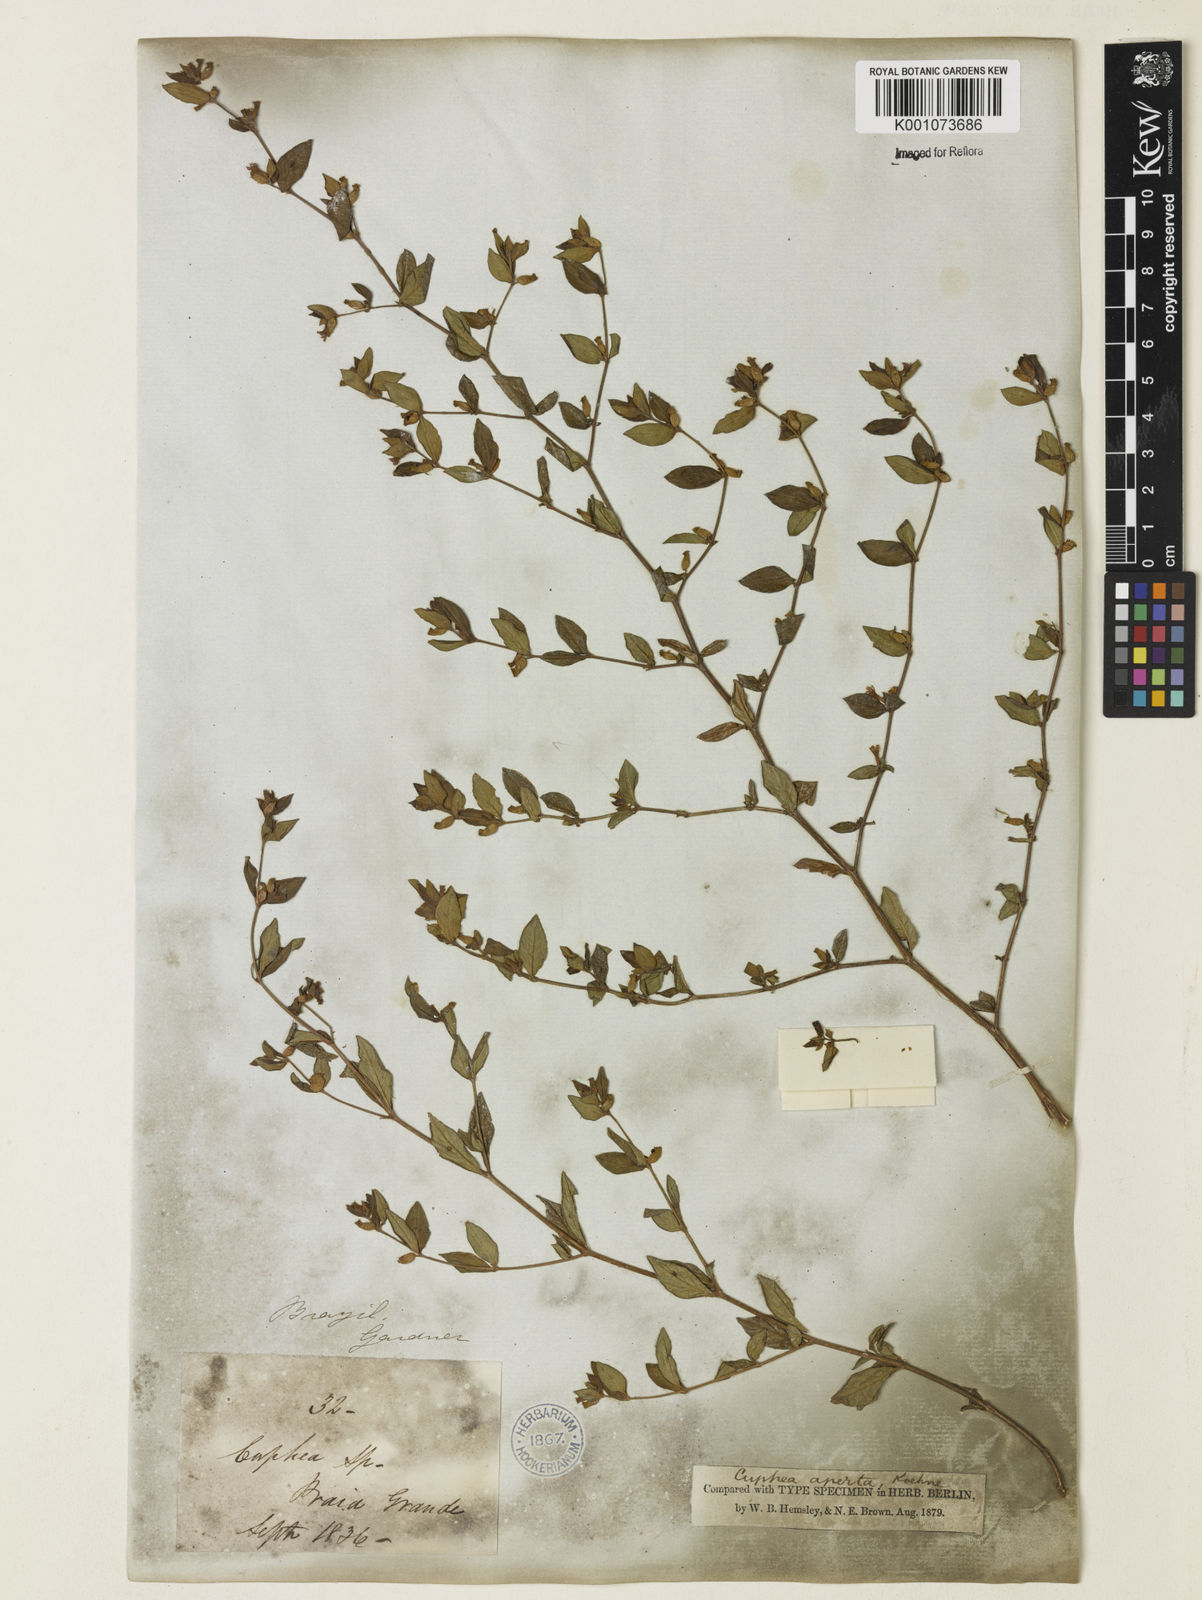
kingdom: Plantae
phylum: Tracheophyta
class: Magnoliopsida
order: Myrtales
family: Lythraceae
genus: Cuphea
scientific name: Cuphea aperta
